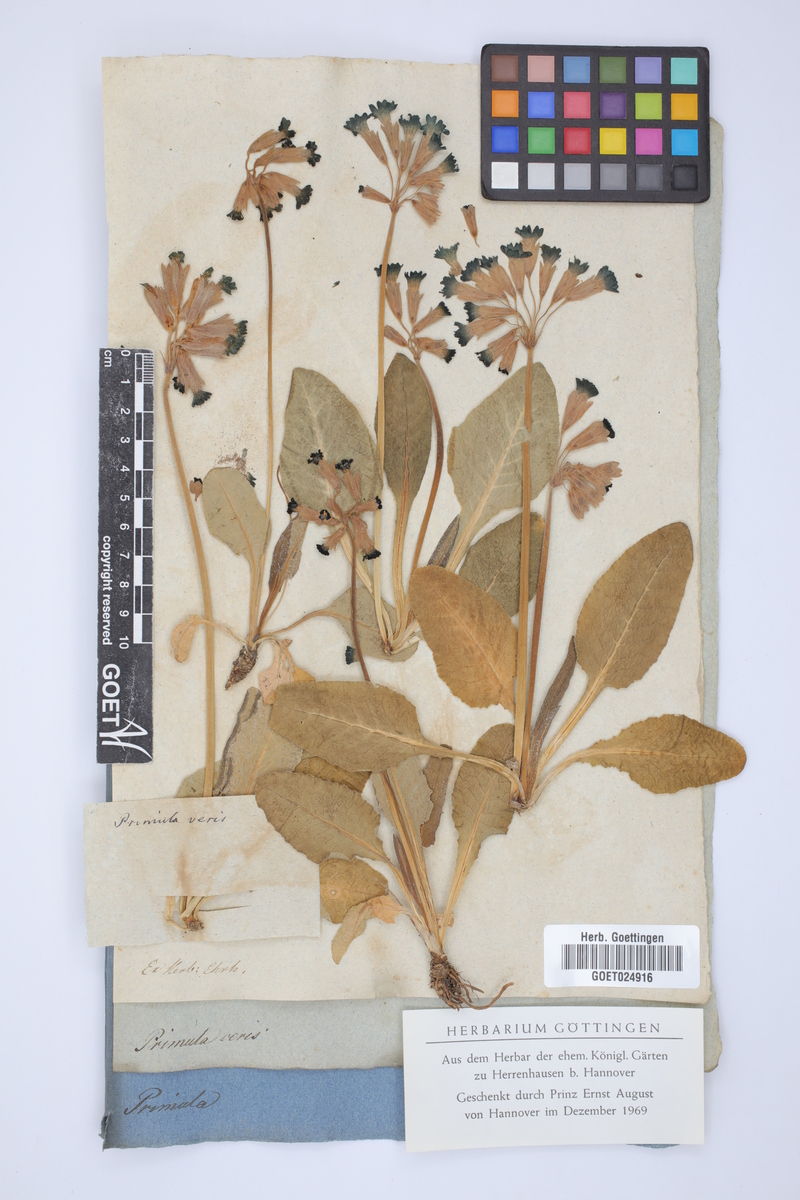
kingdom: Plantae
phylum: Tracheophyta
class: Magnoliopsida
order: Ericales
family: Primulaceae
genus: Primula
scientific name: Primula veris
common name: Cowslip
